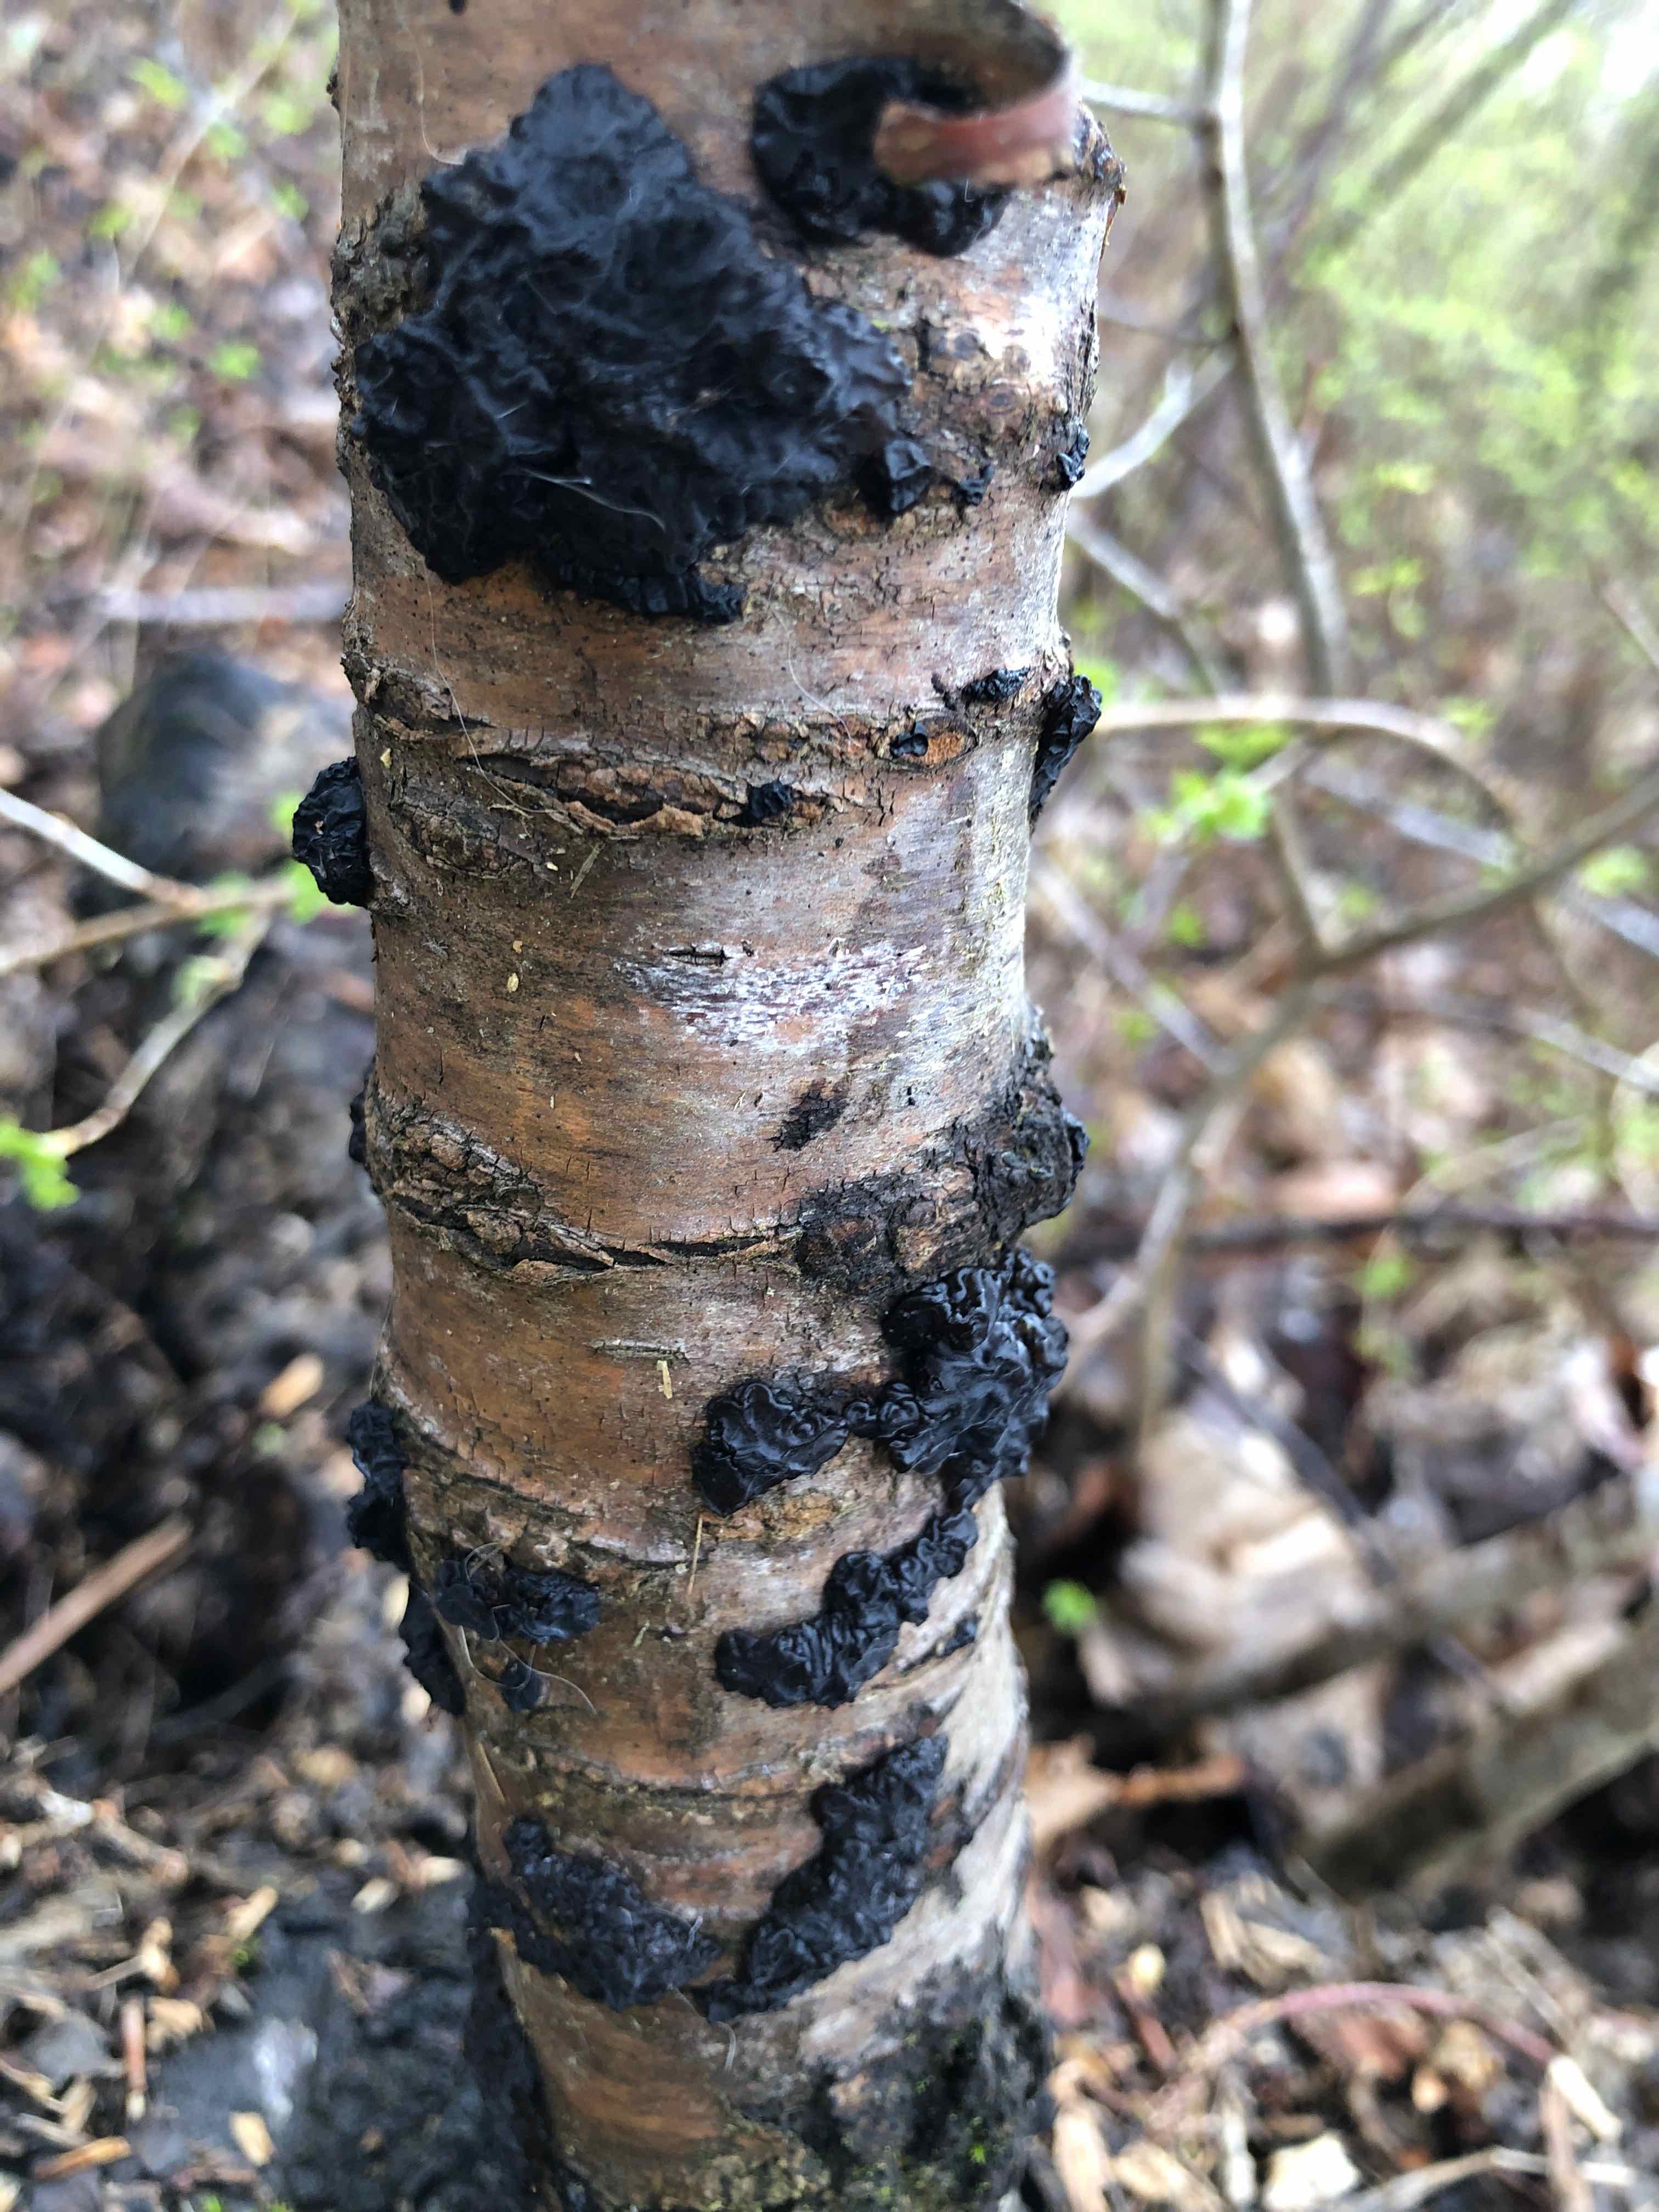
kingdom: Fungi
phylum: Basidiomycota
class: Agaricomycetes
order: Auriculariales
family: Auriculariaceae
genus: Exidia
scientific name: Exidia nigricans
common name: almindelig bævretop
